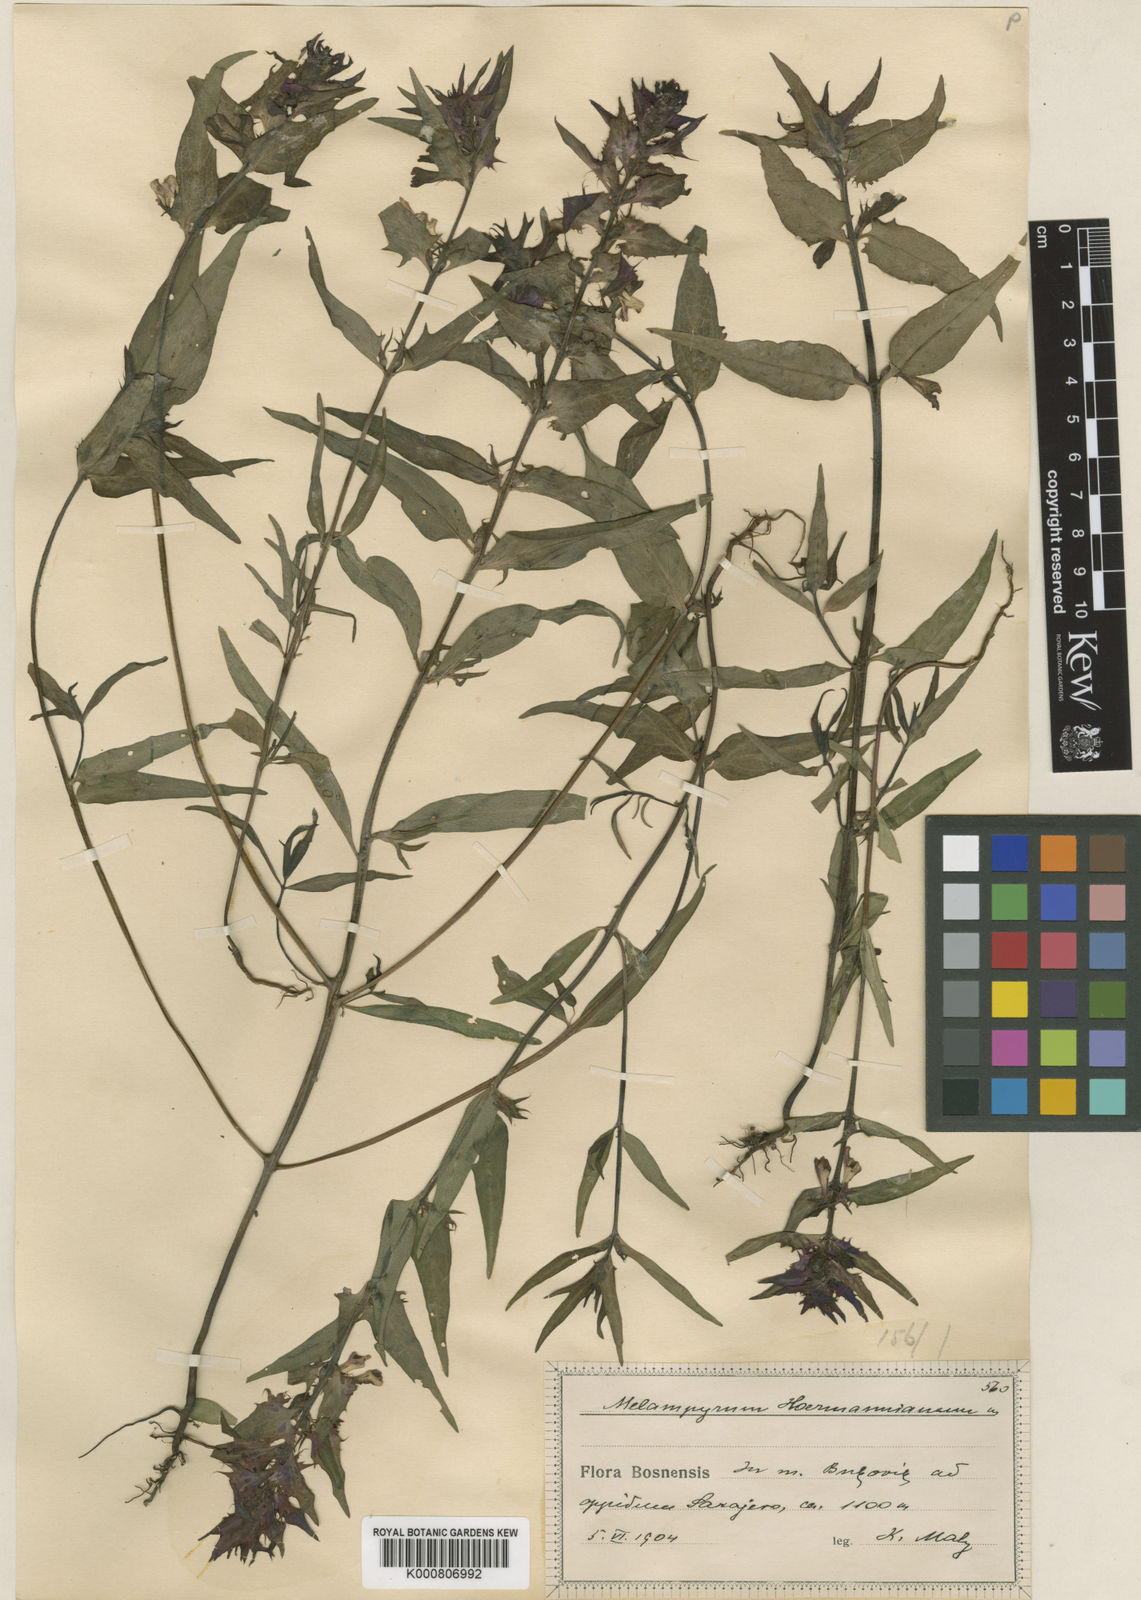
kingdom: Plantae
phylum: Tracheophyta
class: Magnoliopsida
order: Lamiales
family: Orobanchaceae
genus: Melampyrum
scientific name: Melampyrum hoermannianum
